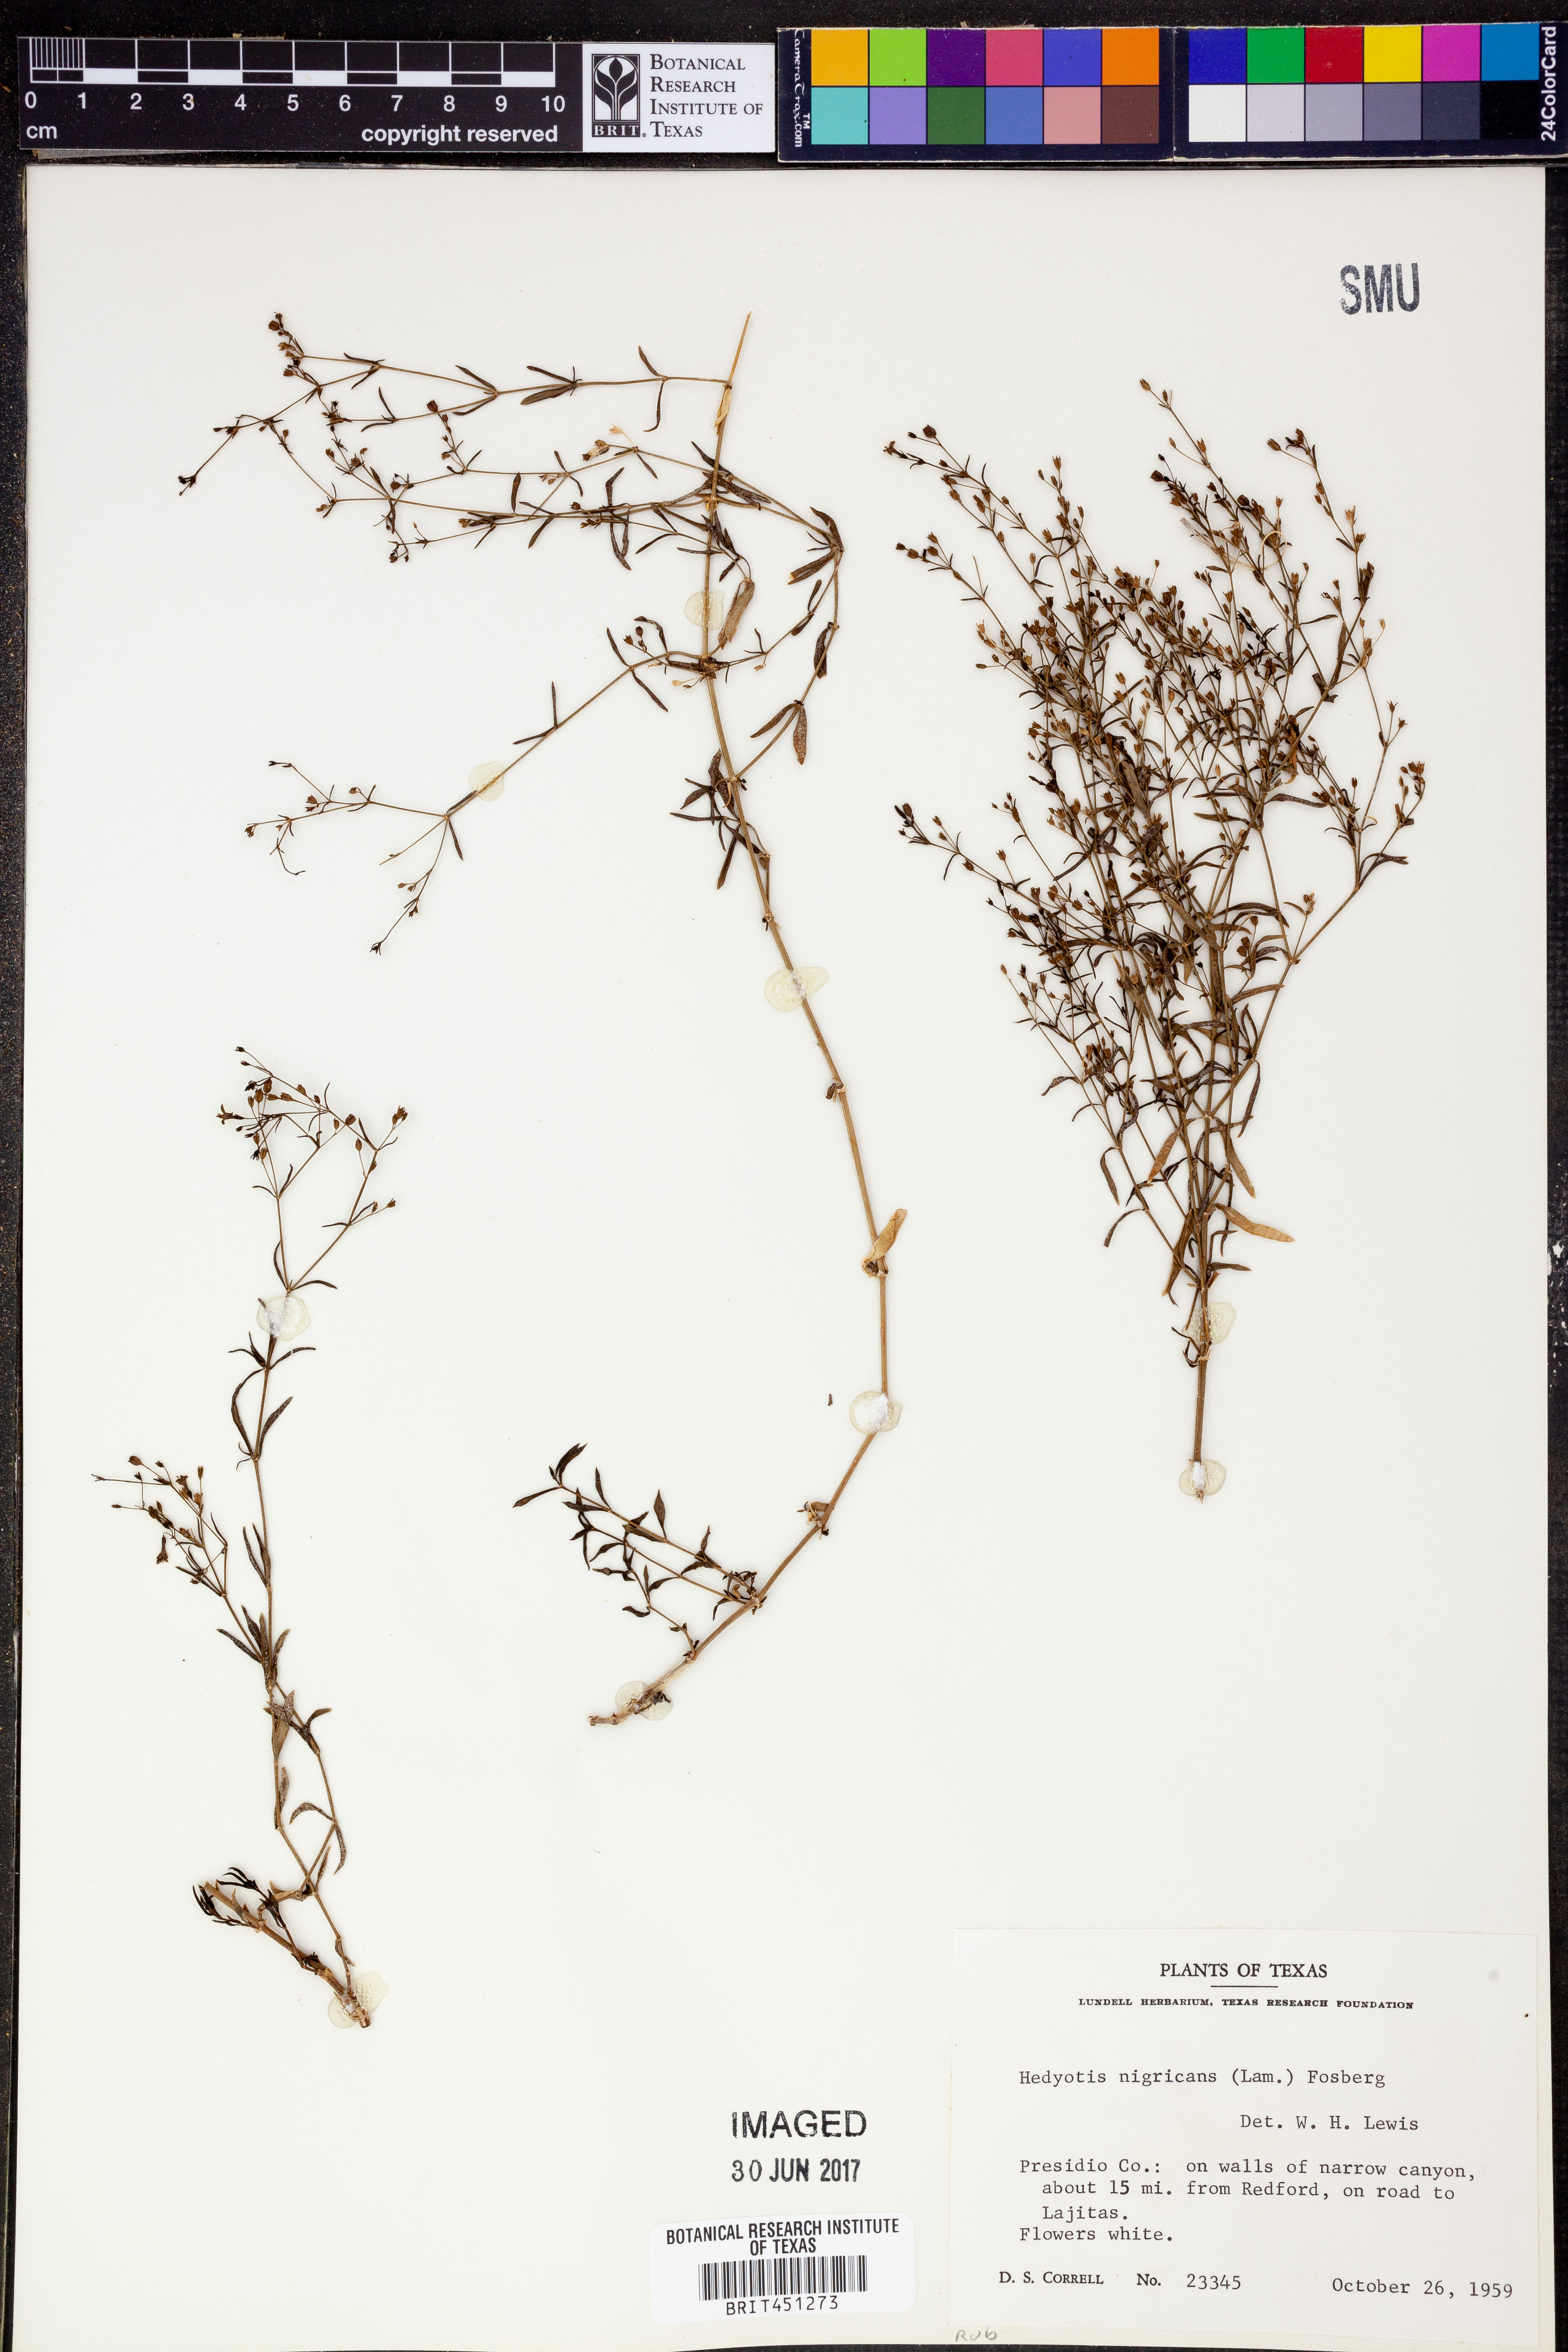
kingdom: Plantae
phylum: Tracheophyta
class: Magnoliopsida
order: Gentianales
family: Rubiaceae
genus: Stenaria
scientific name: Stenaria nigricans
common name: Diamondflowers
